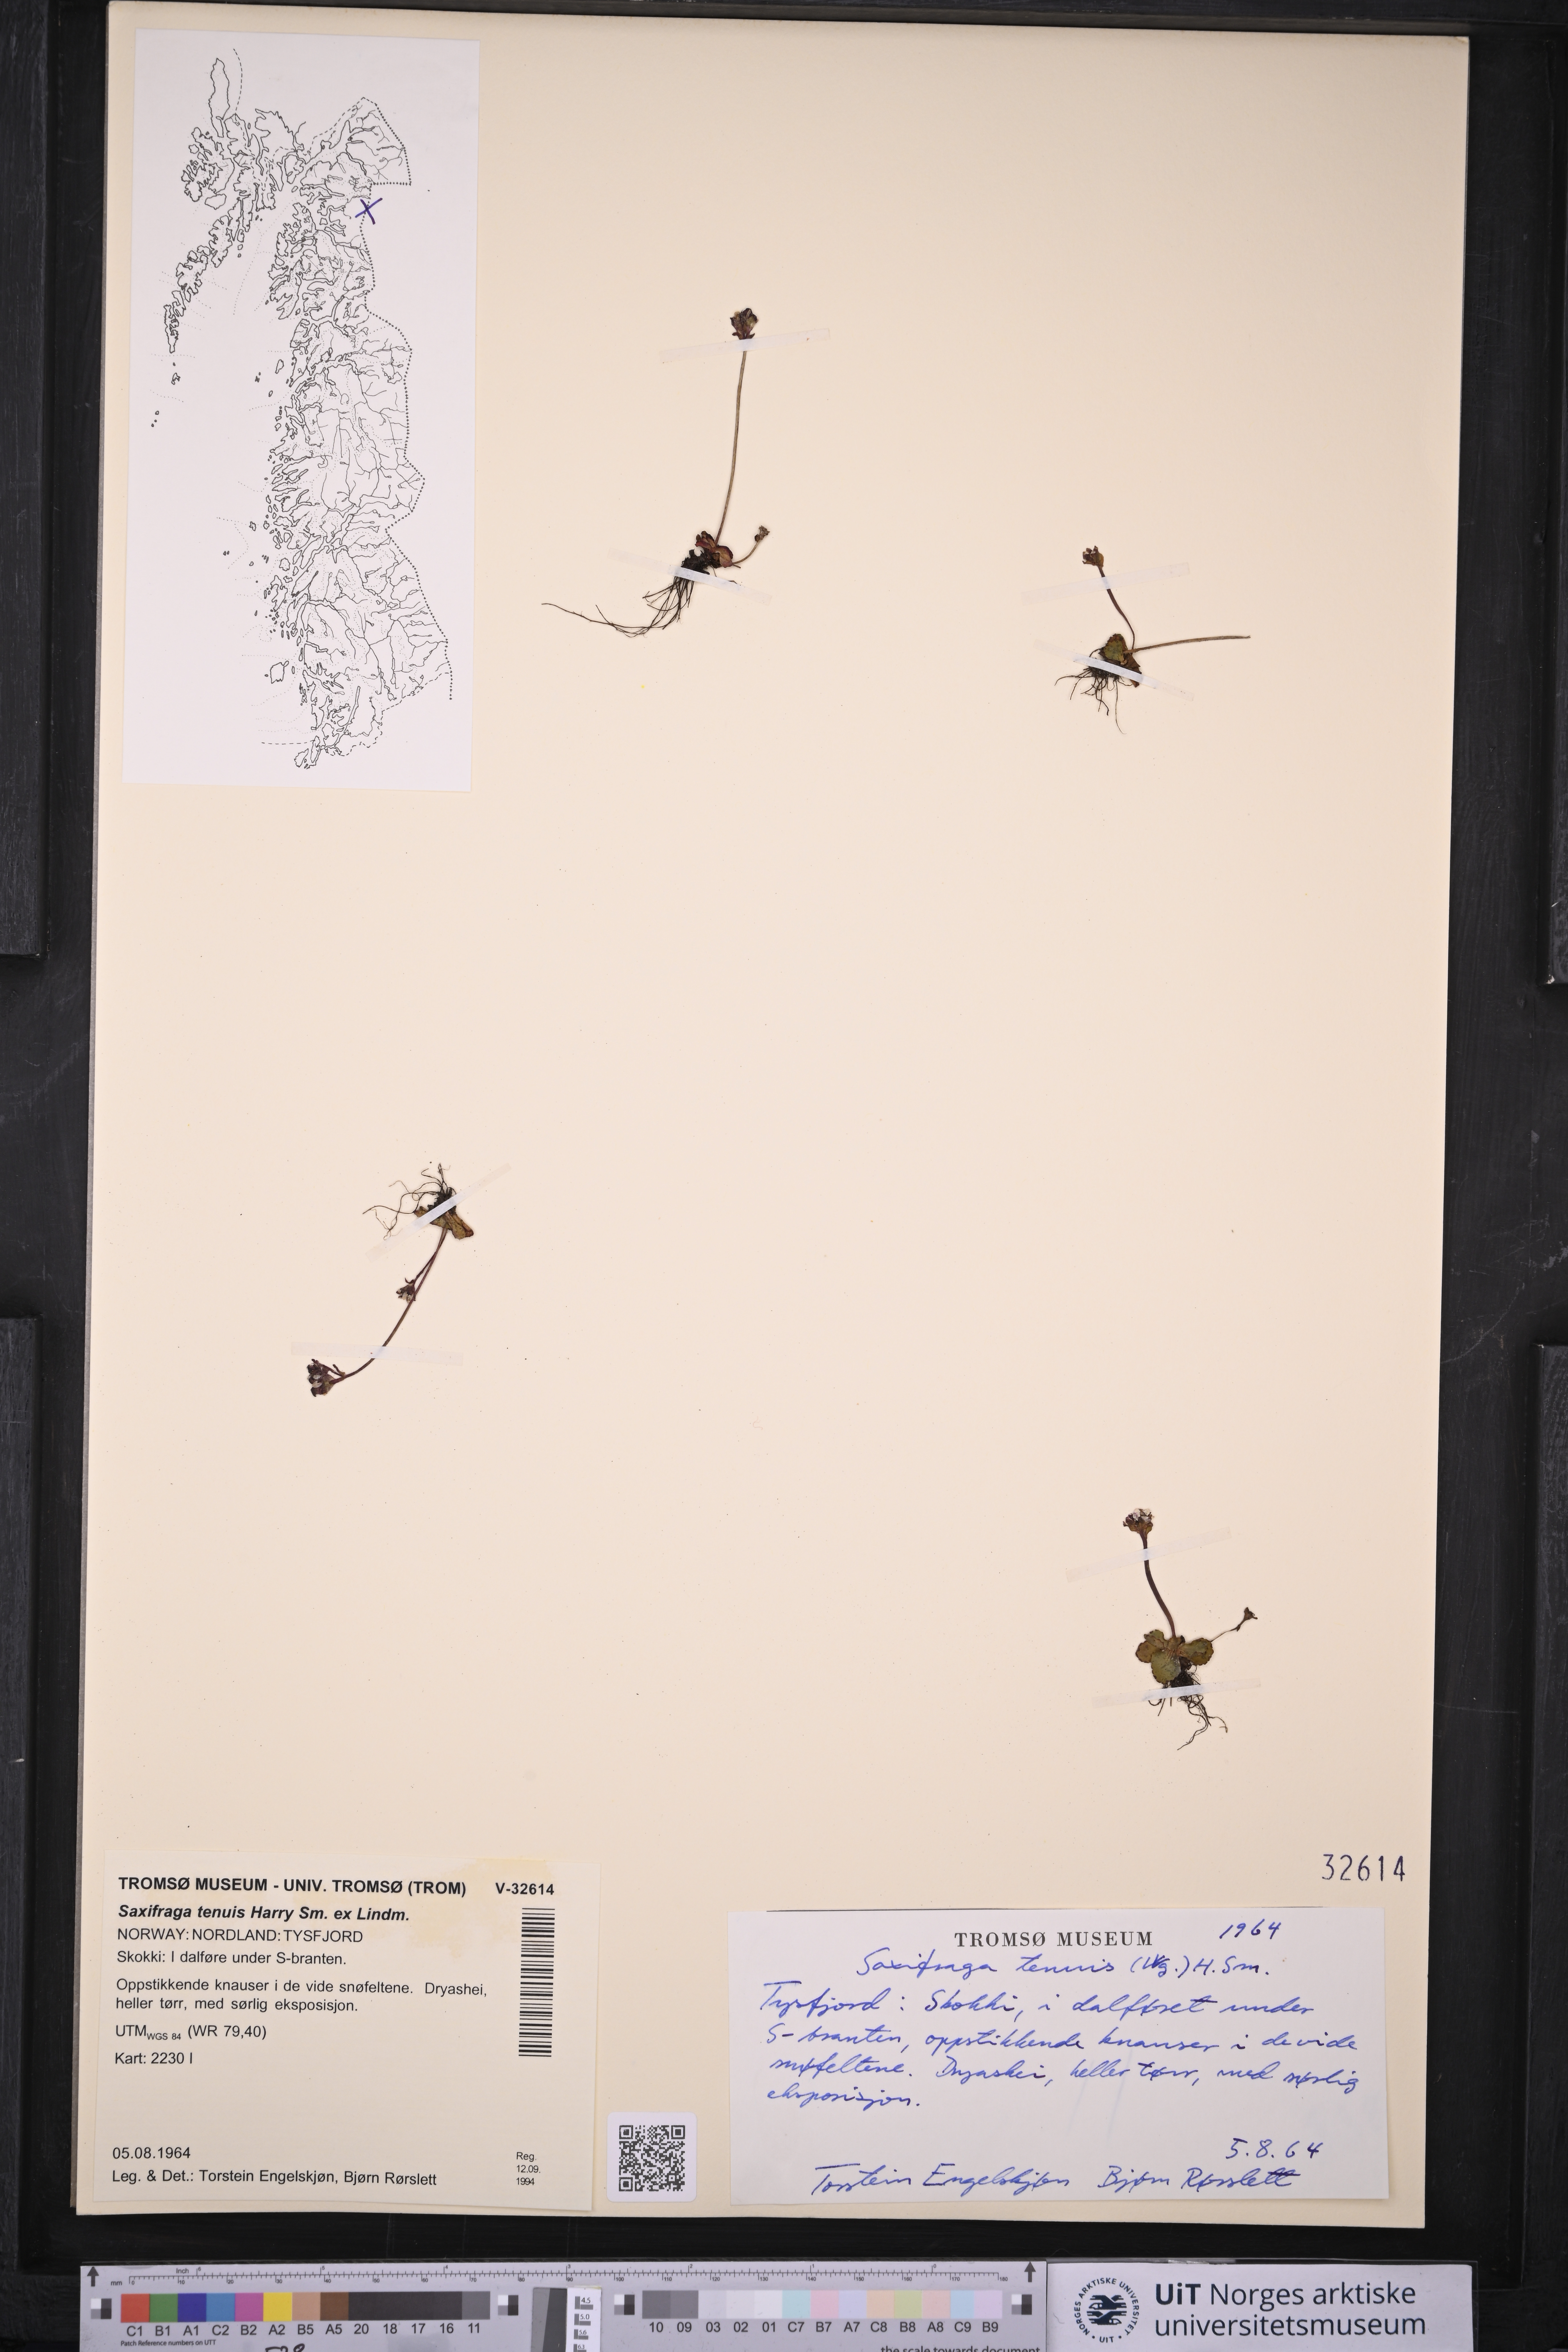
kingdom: Plantae
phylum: Tracheophyta
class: Magnoliopsida
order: Saxifragales
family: Saxifragaceae
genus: Micranthes
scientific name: Micranthes tenuis
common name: Ottertail pass saxifrage
